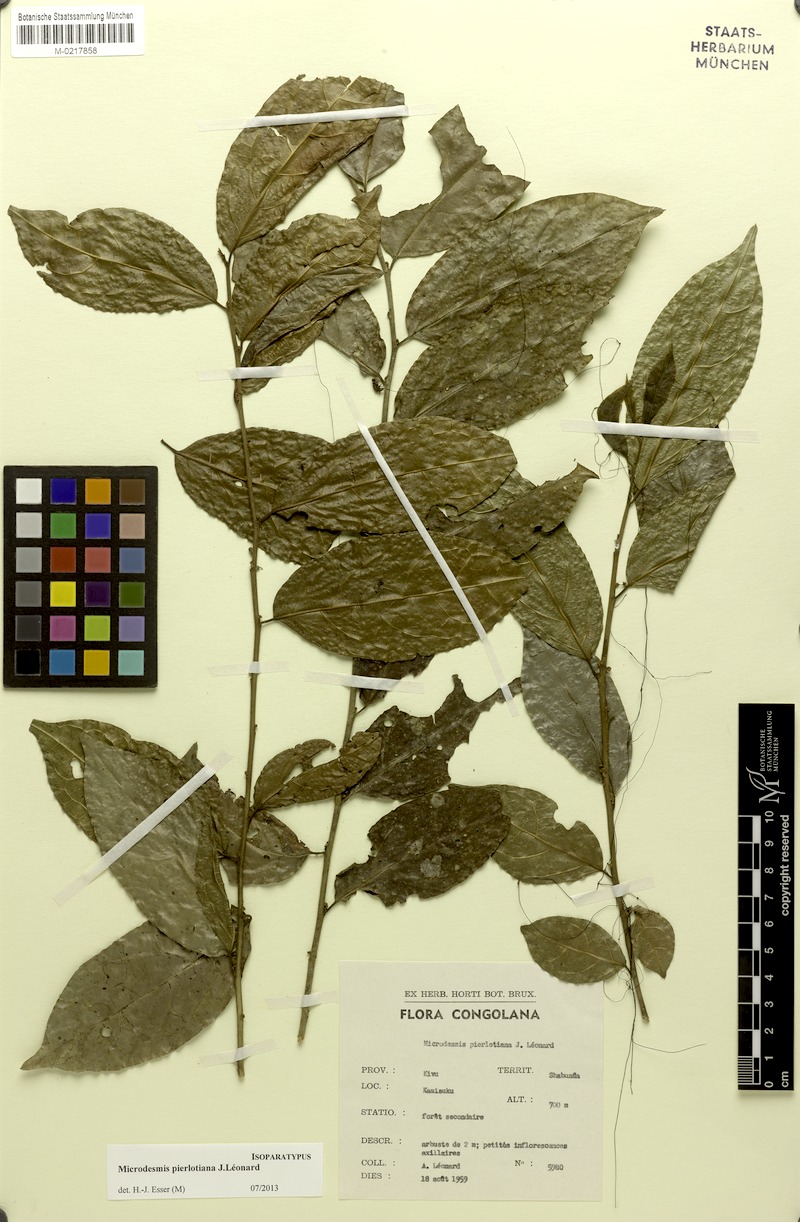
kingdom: Plantae
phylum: Tracheophyta
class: Magnoliopsida
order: Malpighiales
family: Pandaceae
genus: Microdesmis
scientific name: Microdesmis pierlotiana
